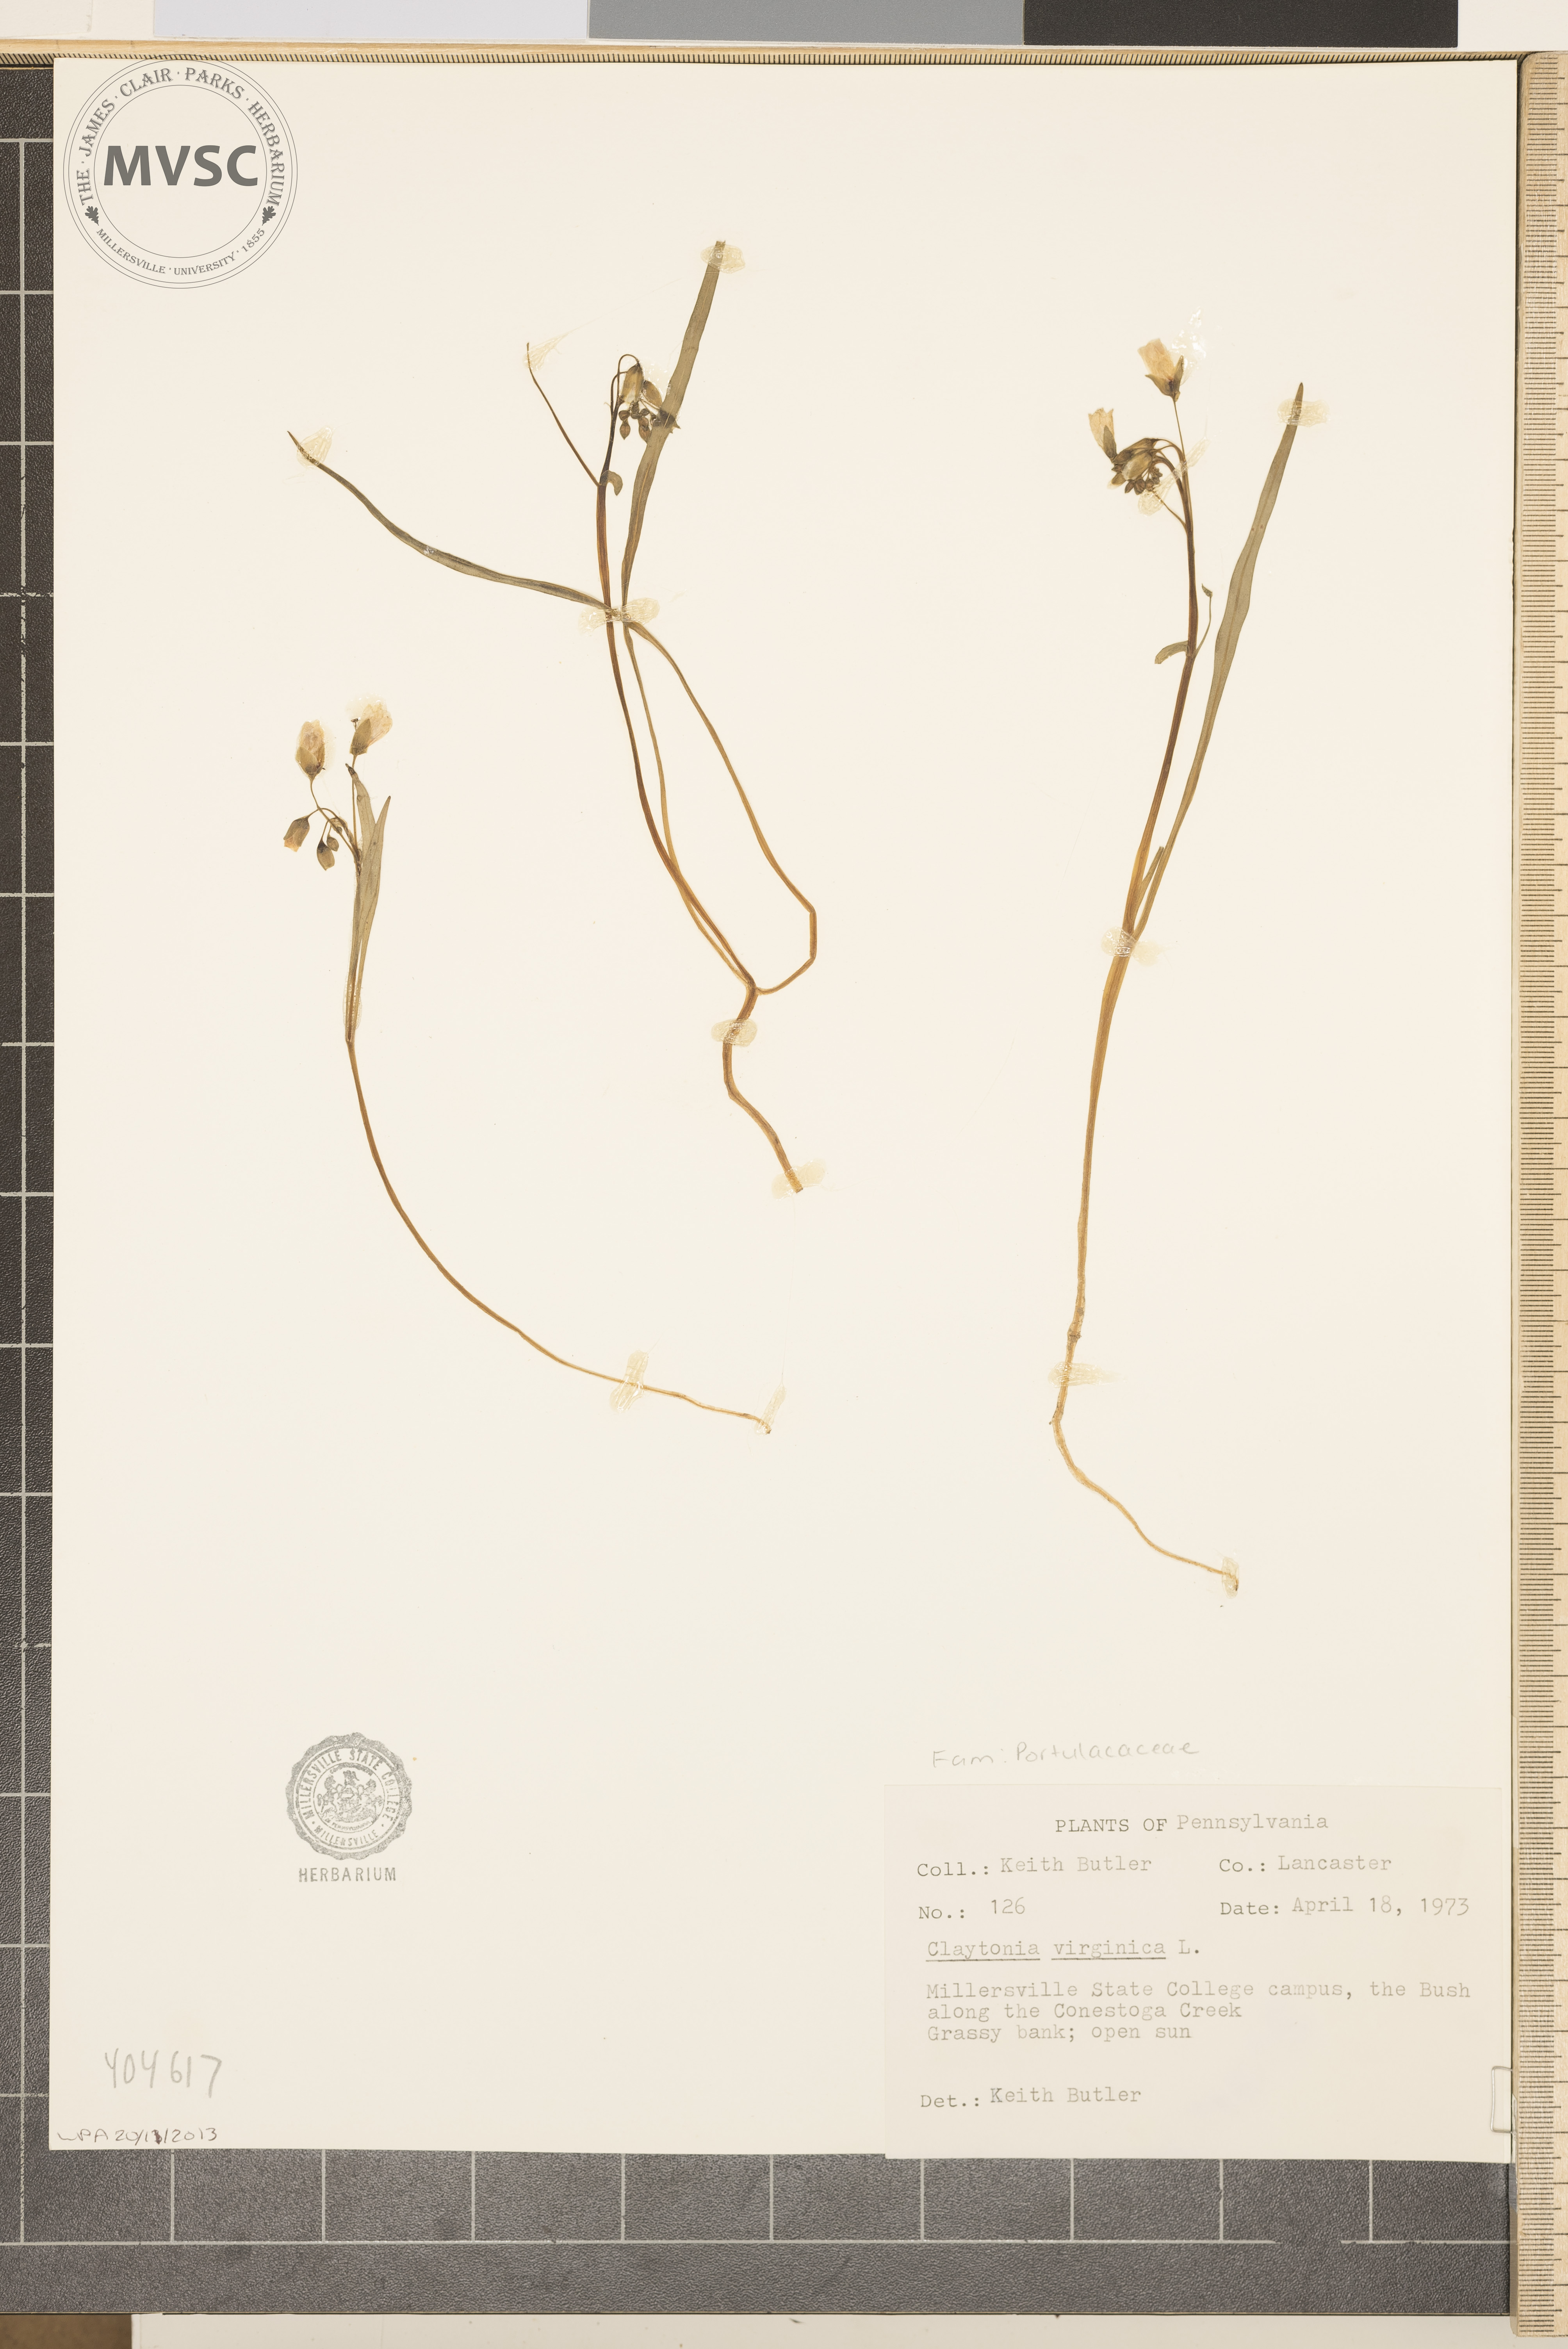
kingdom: Plantae
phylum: Tracheophyta
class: Magnoliopsida
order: Caryophyllales
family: Montiaceae
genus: Claytonia
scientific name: Claytonia virginica
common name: Virginia springbeauty
